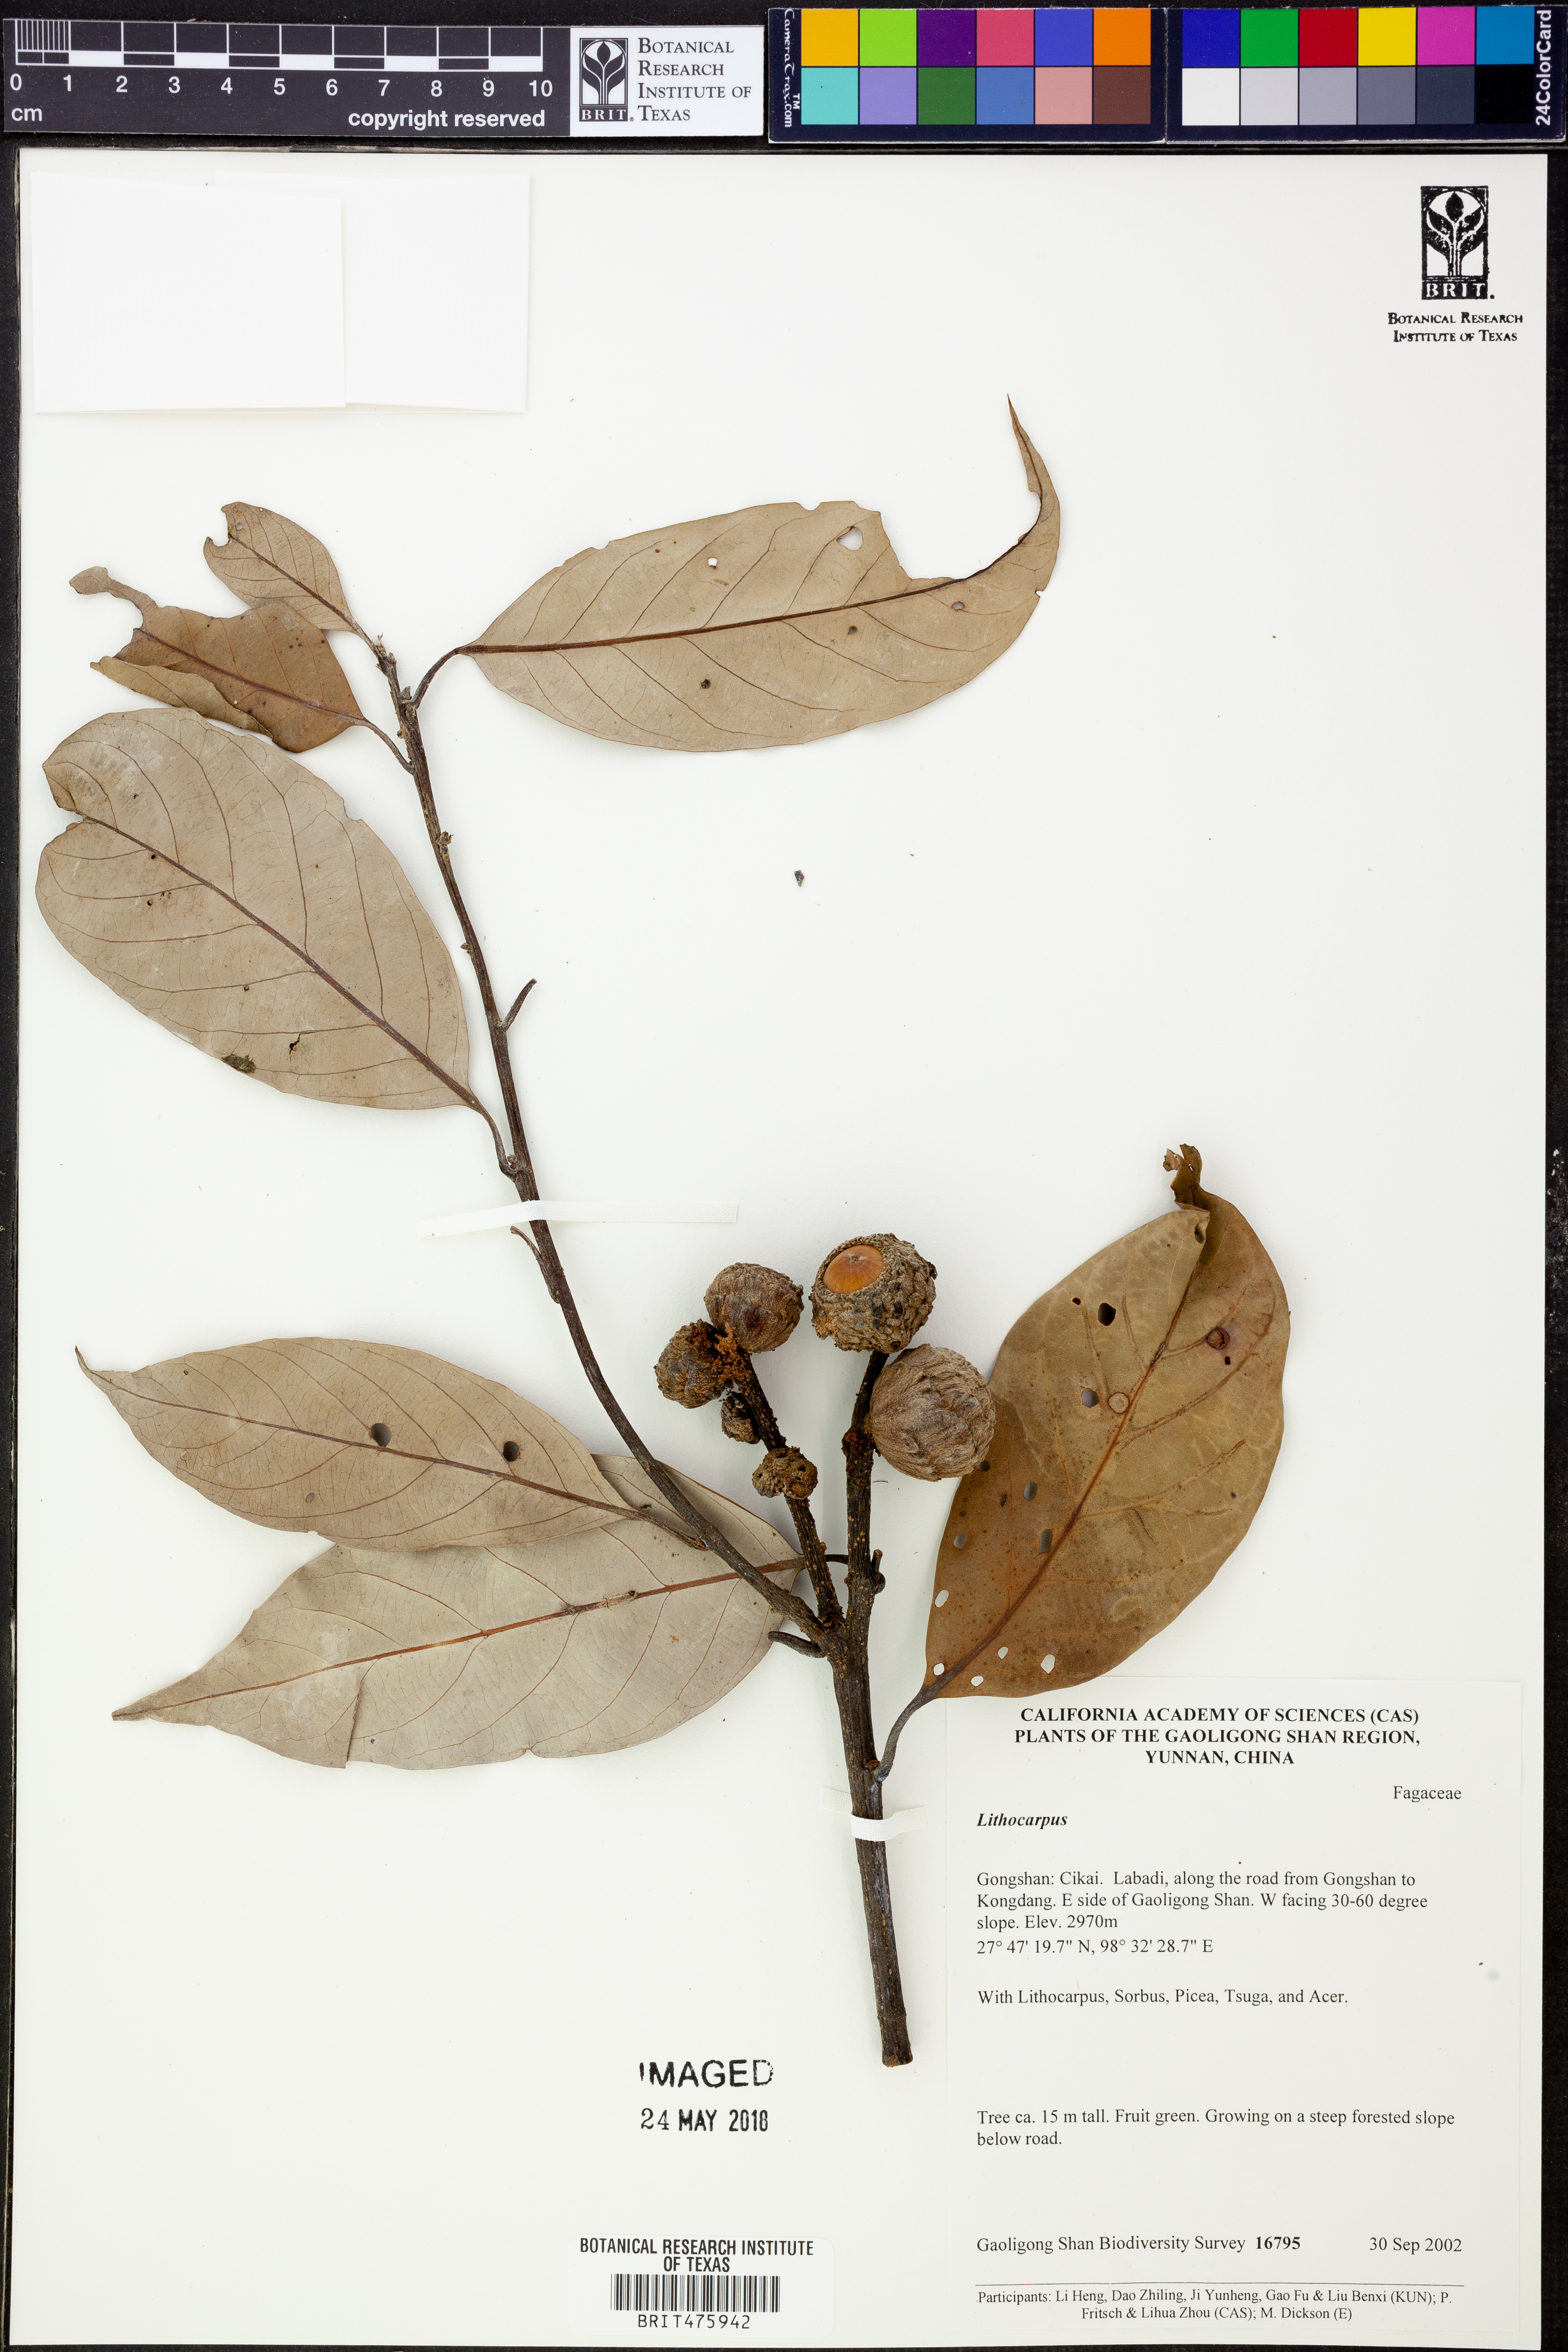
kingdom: Plantae
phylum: Tracheophyta
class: Magnoliopsida
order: Fagales
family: Fagaceae
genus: Lithocarpus
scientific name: Lithocarpus
